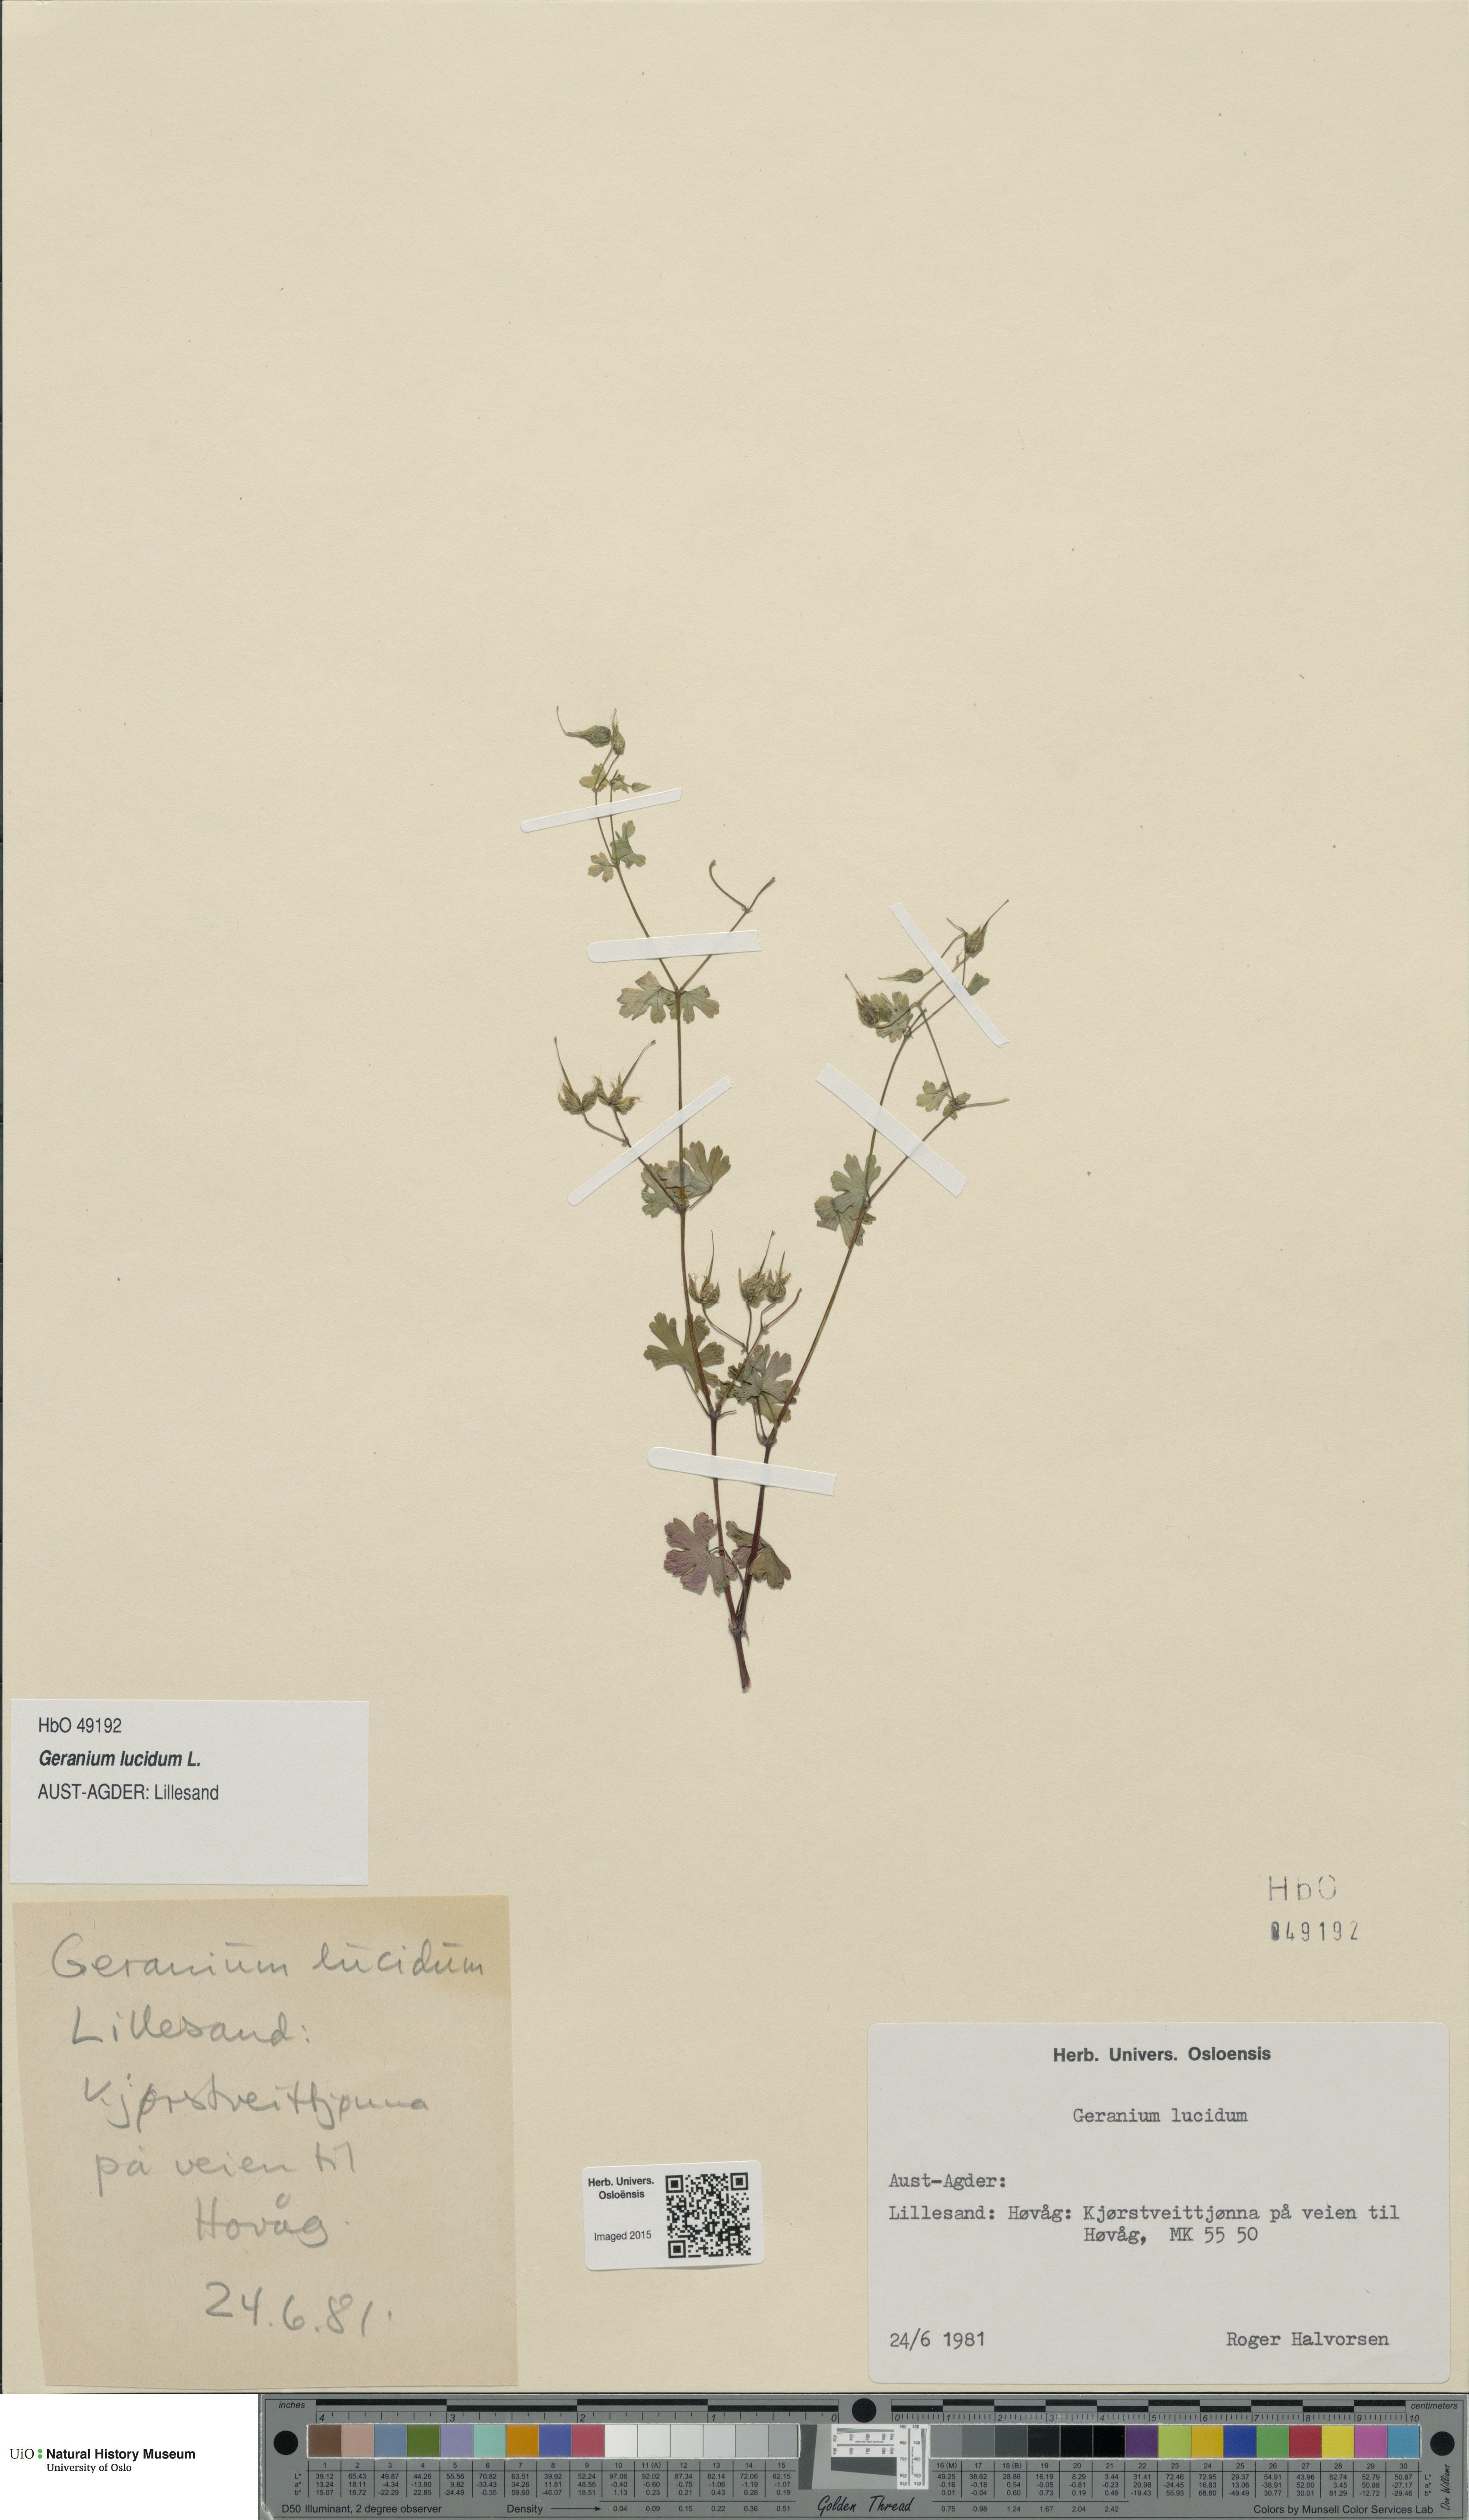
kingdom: Plantae
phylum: Tracheophyta
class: Magnoliopsida
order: Geraniales
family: Geraniaceae
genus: Geranium
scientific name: Geranium lucidum
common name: Shining crane's-bill
